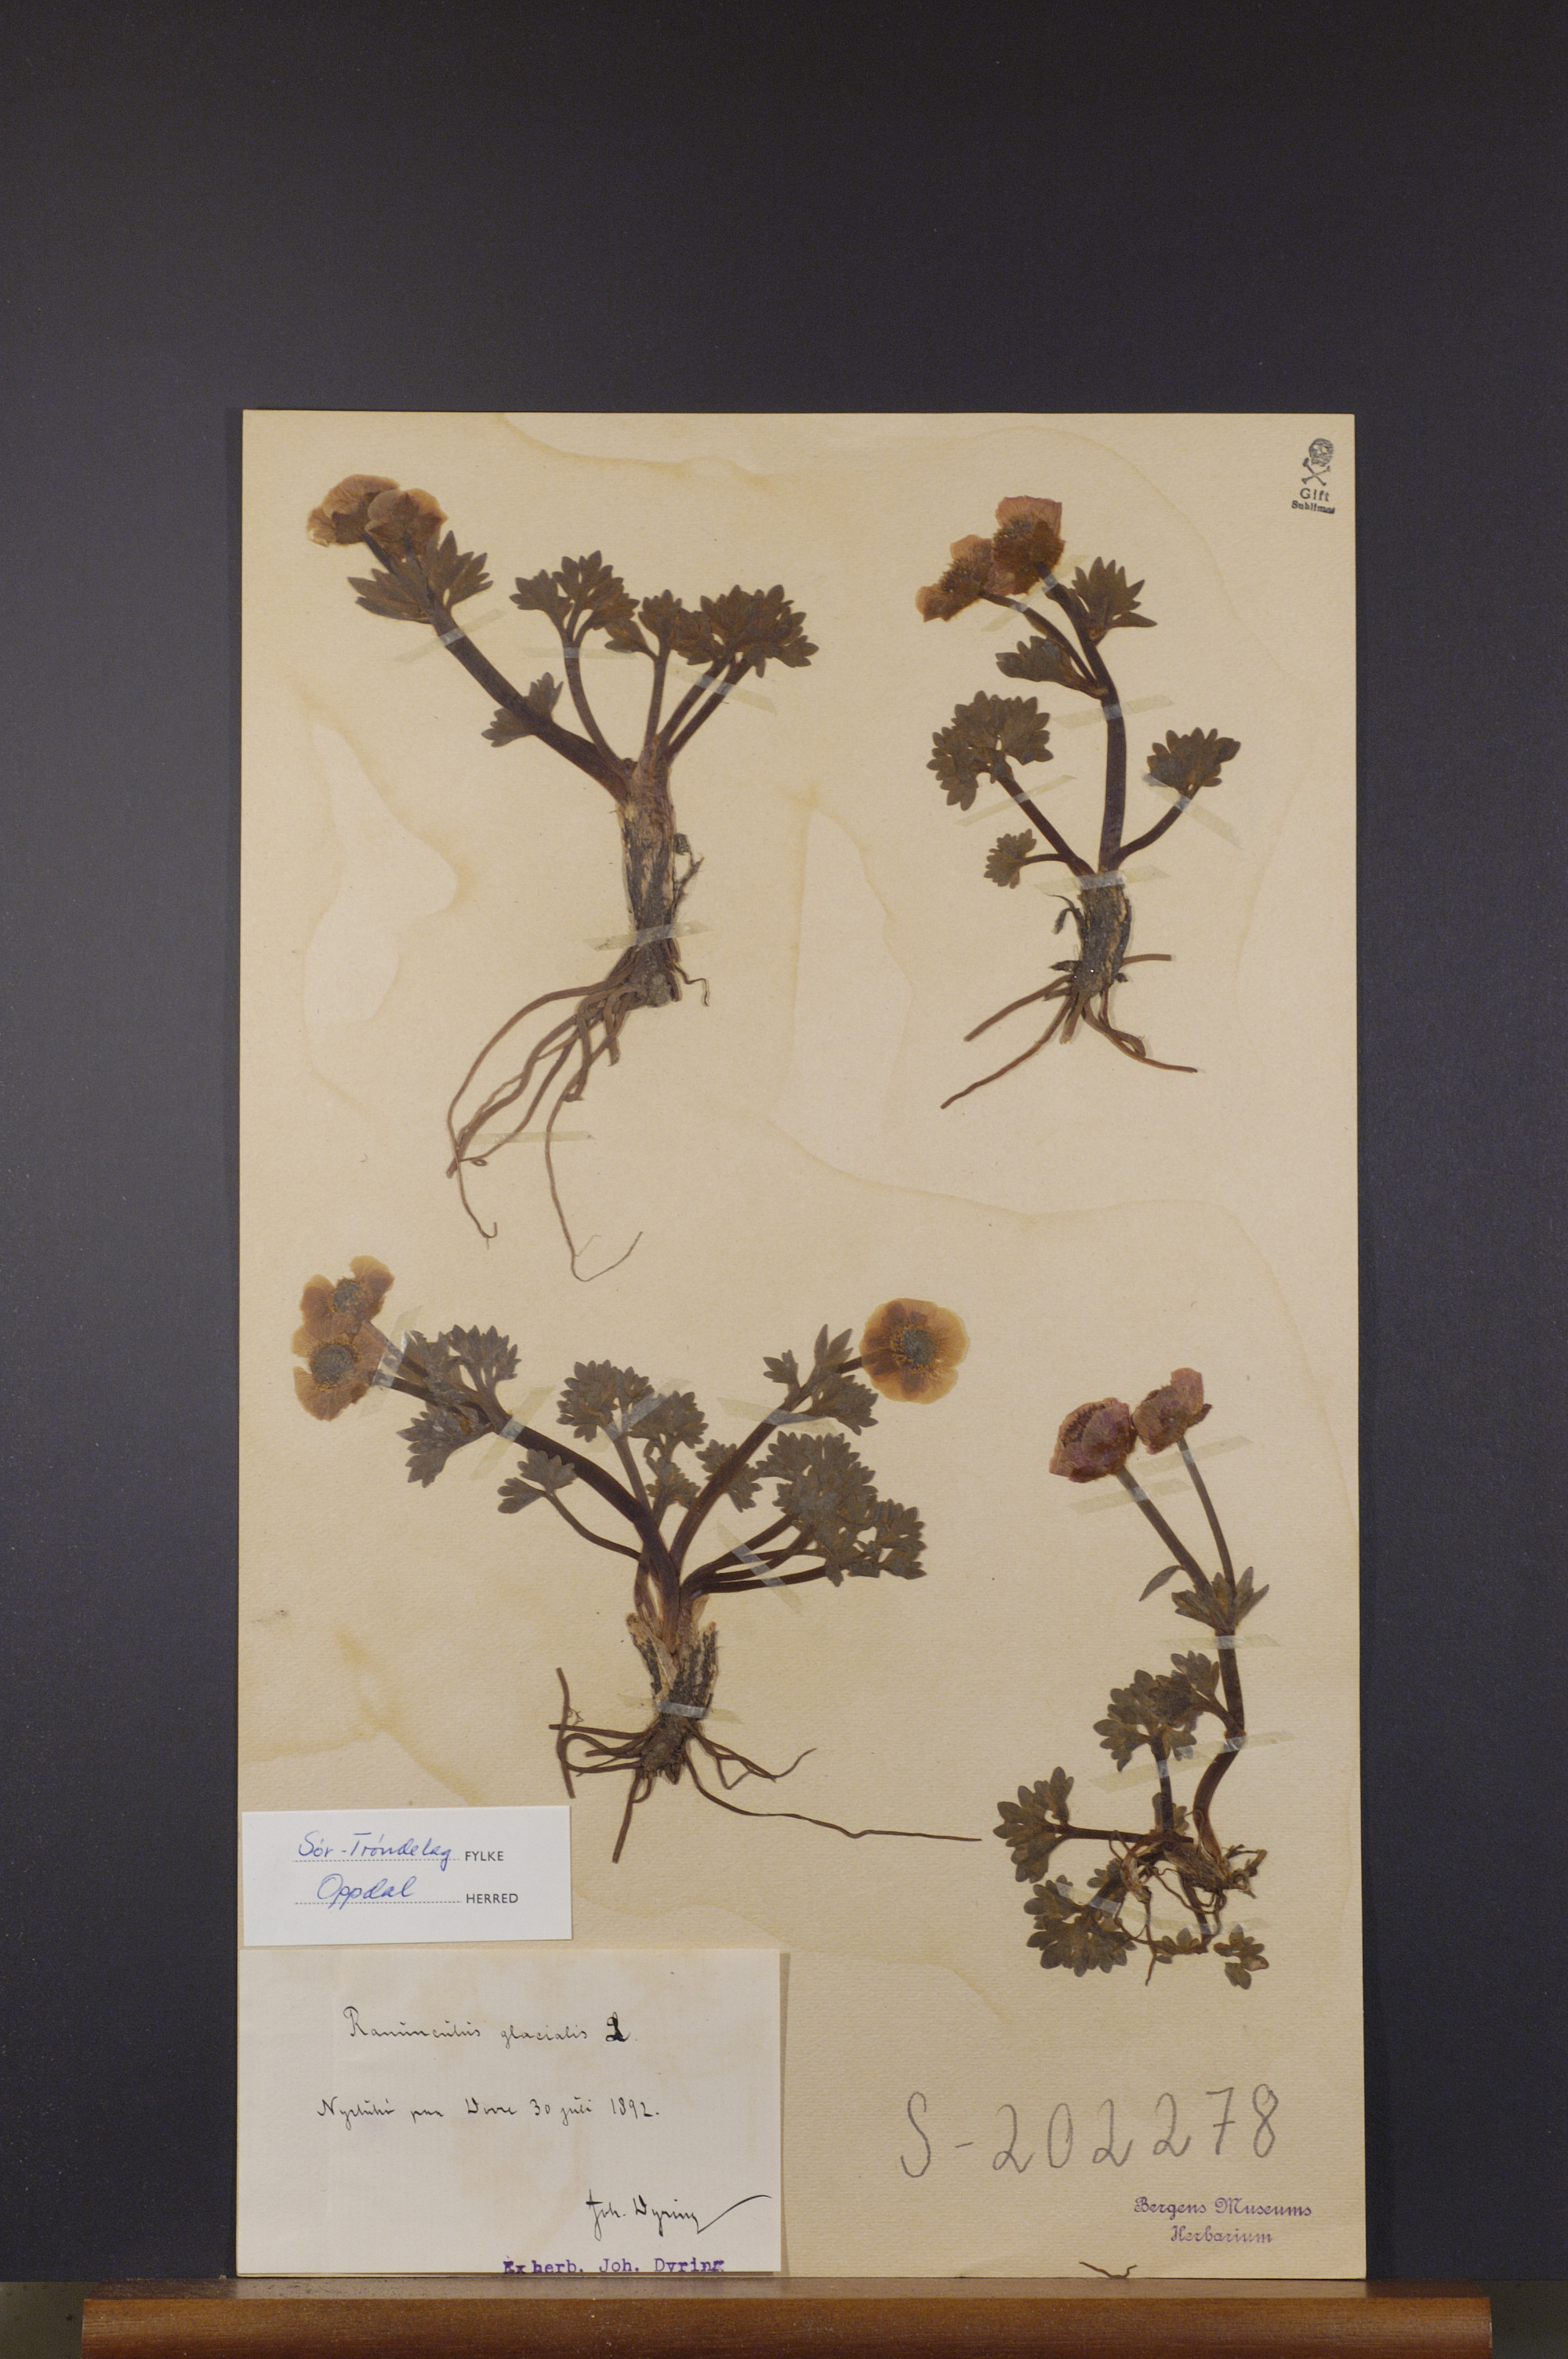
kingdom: Plantae
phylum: Tracheophyta
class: Magnoliopsida
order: Ranunculales
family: Ranunculaceae
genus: Ranunculus
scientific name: Ranunculus glacialis
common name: Glacier buttercup
